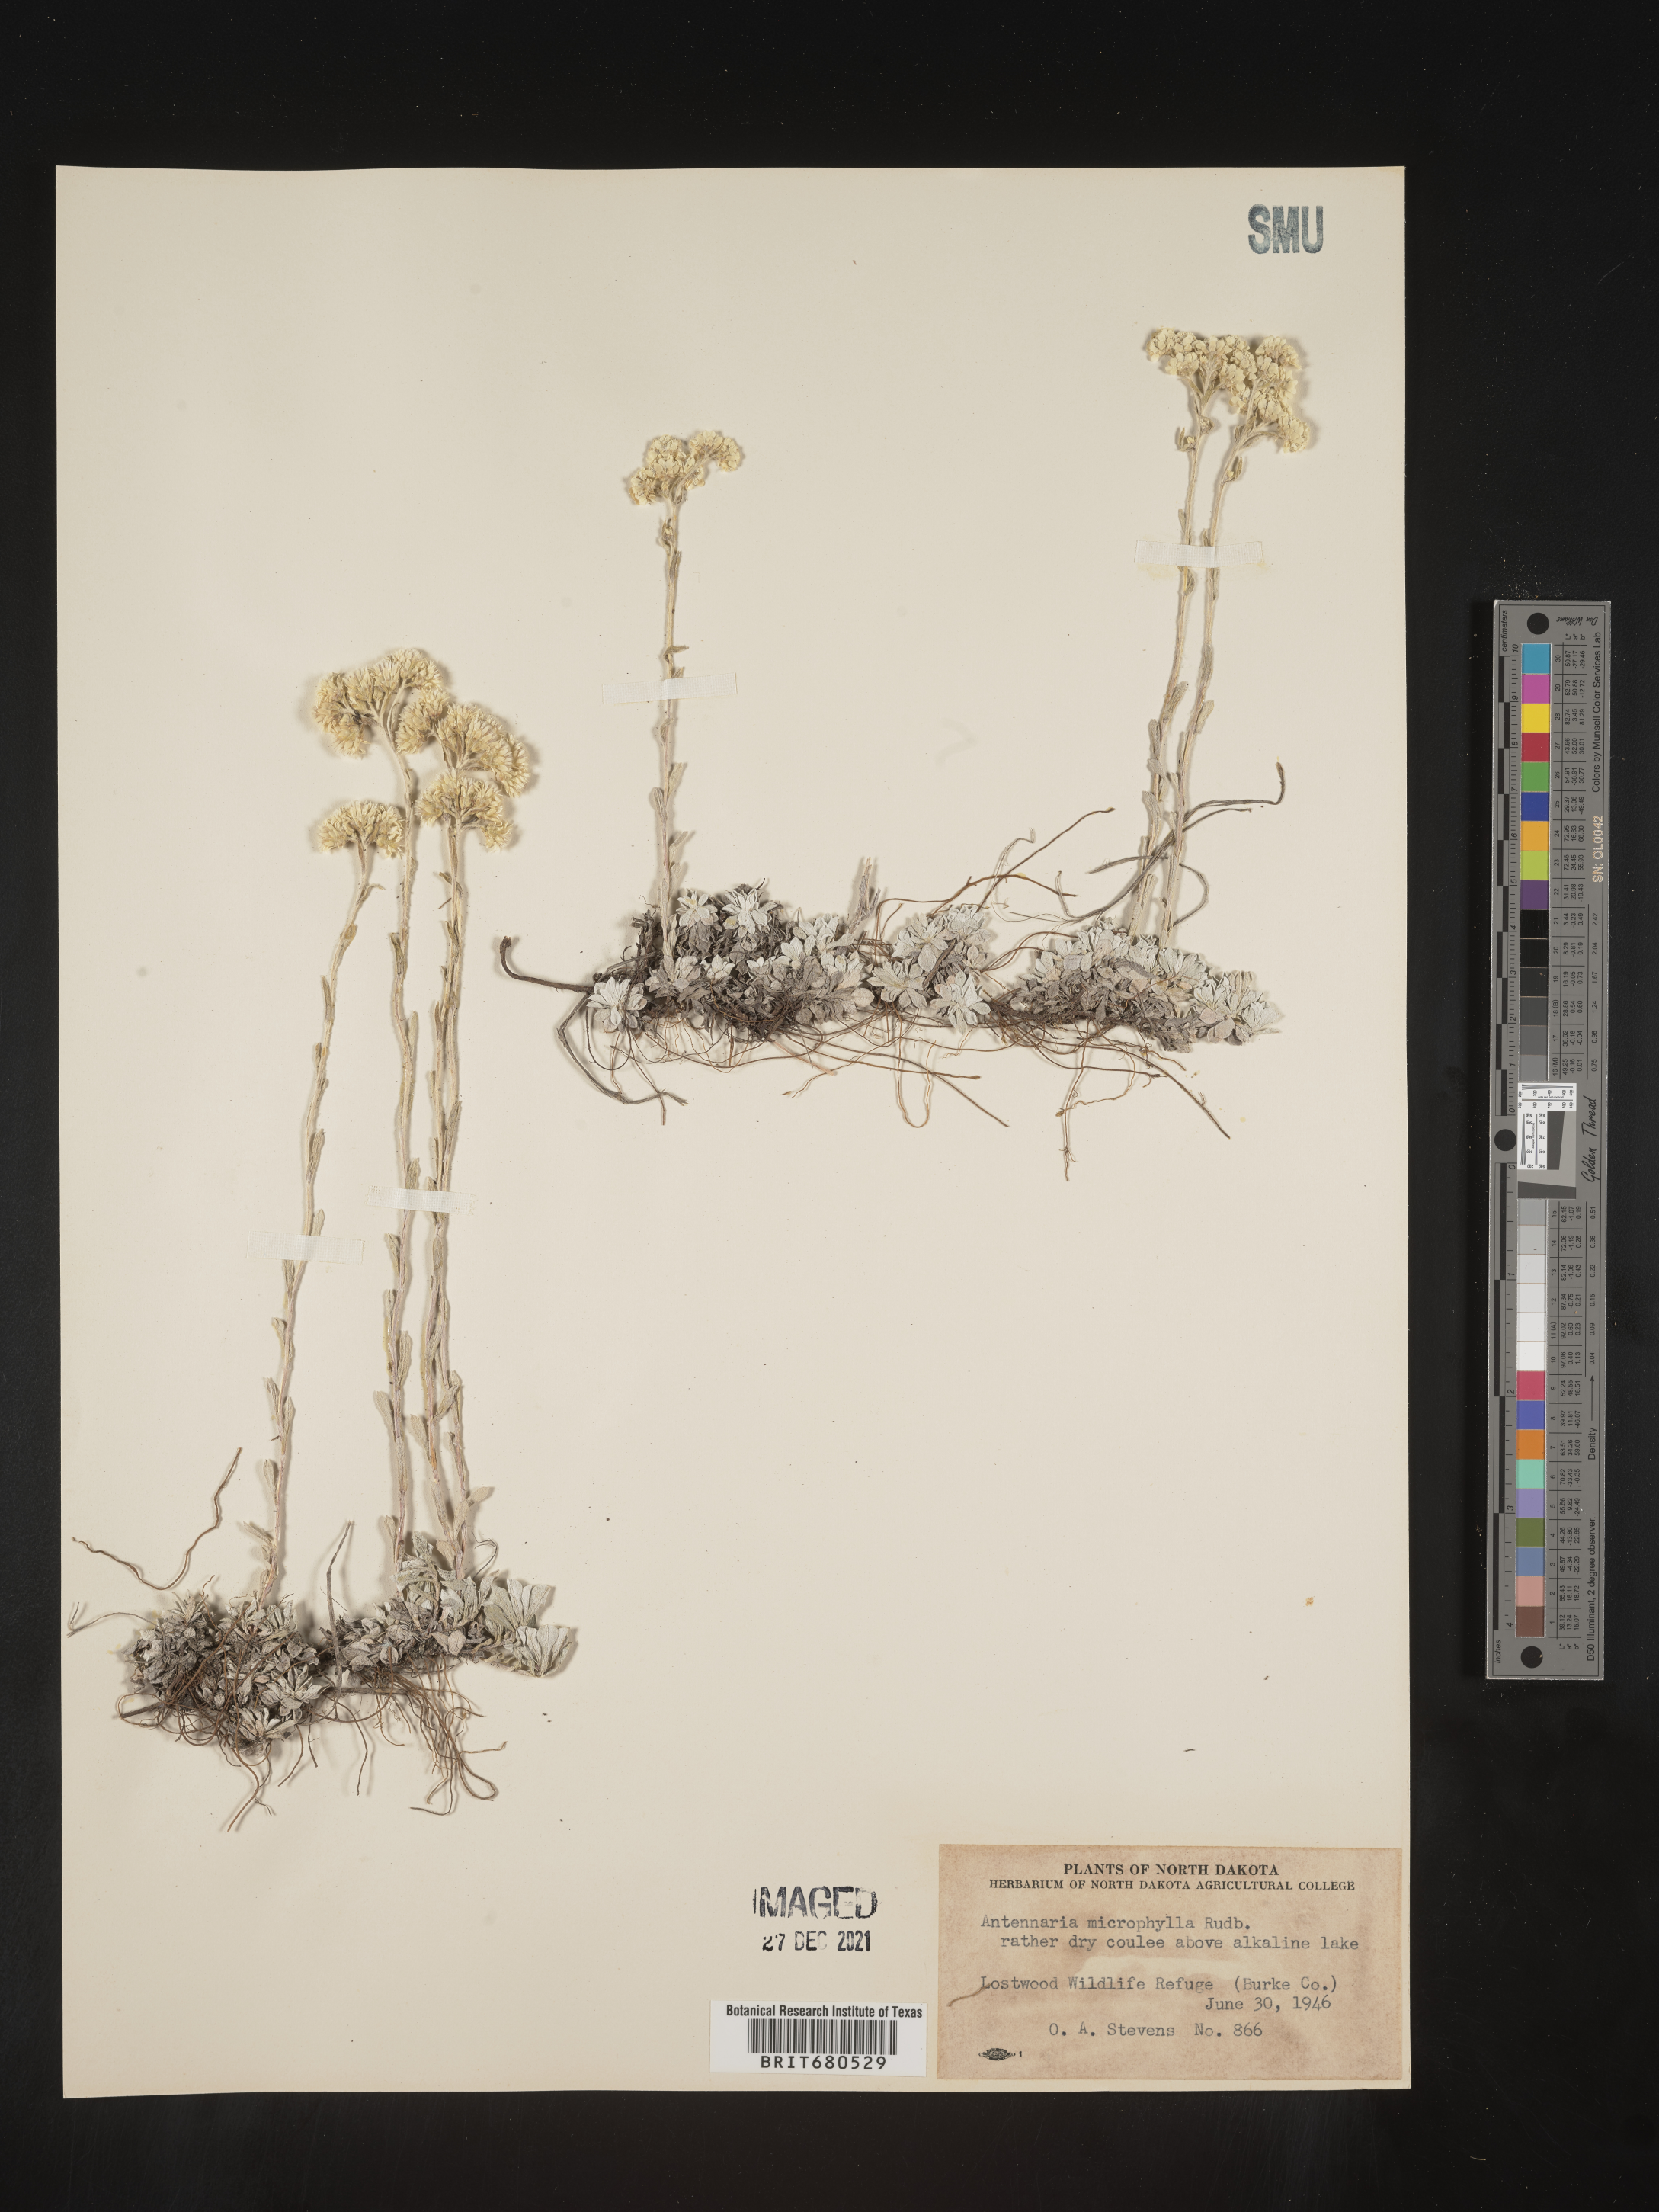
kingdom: Plantae
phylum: Tracheophyta
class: Magnoliopsida
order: Asterales
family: Asteraceae
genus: Antennaria
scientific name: Antennaria rosea
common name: Rosy pussytoes
